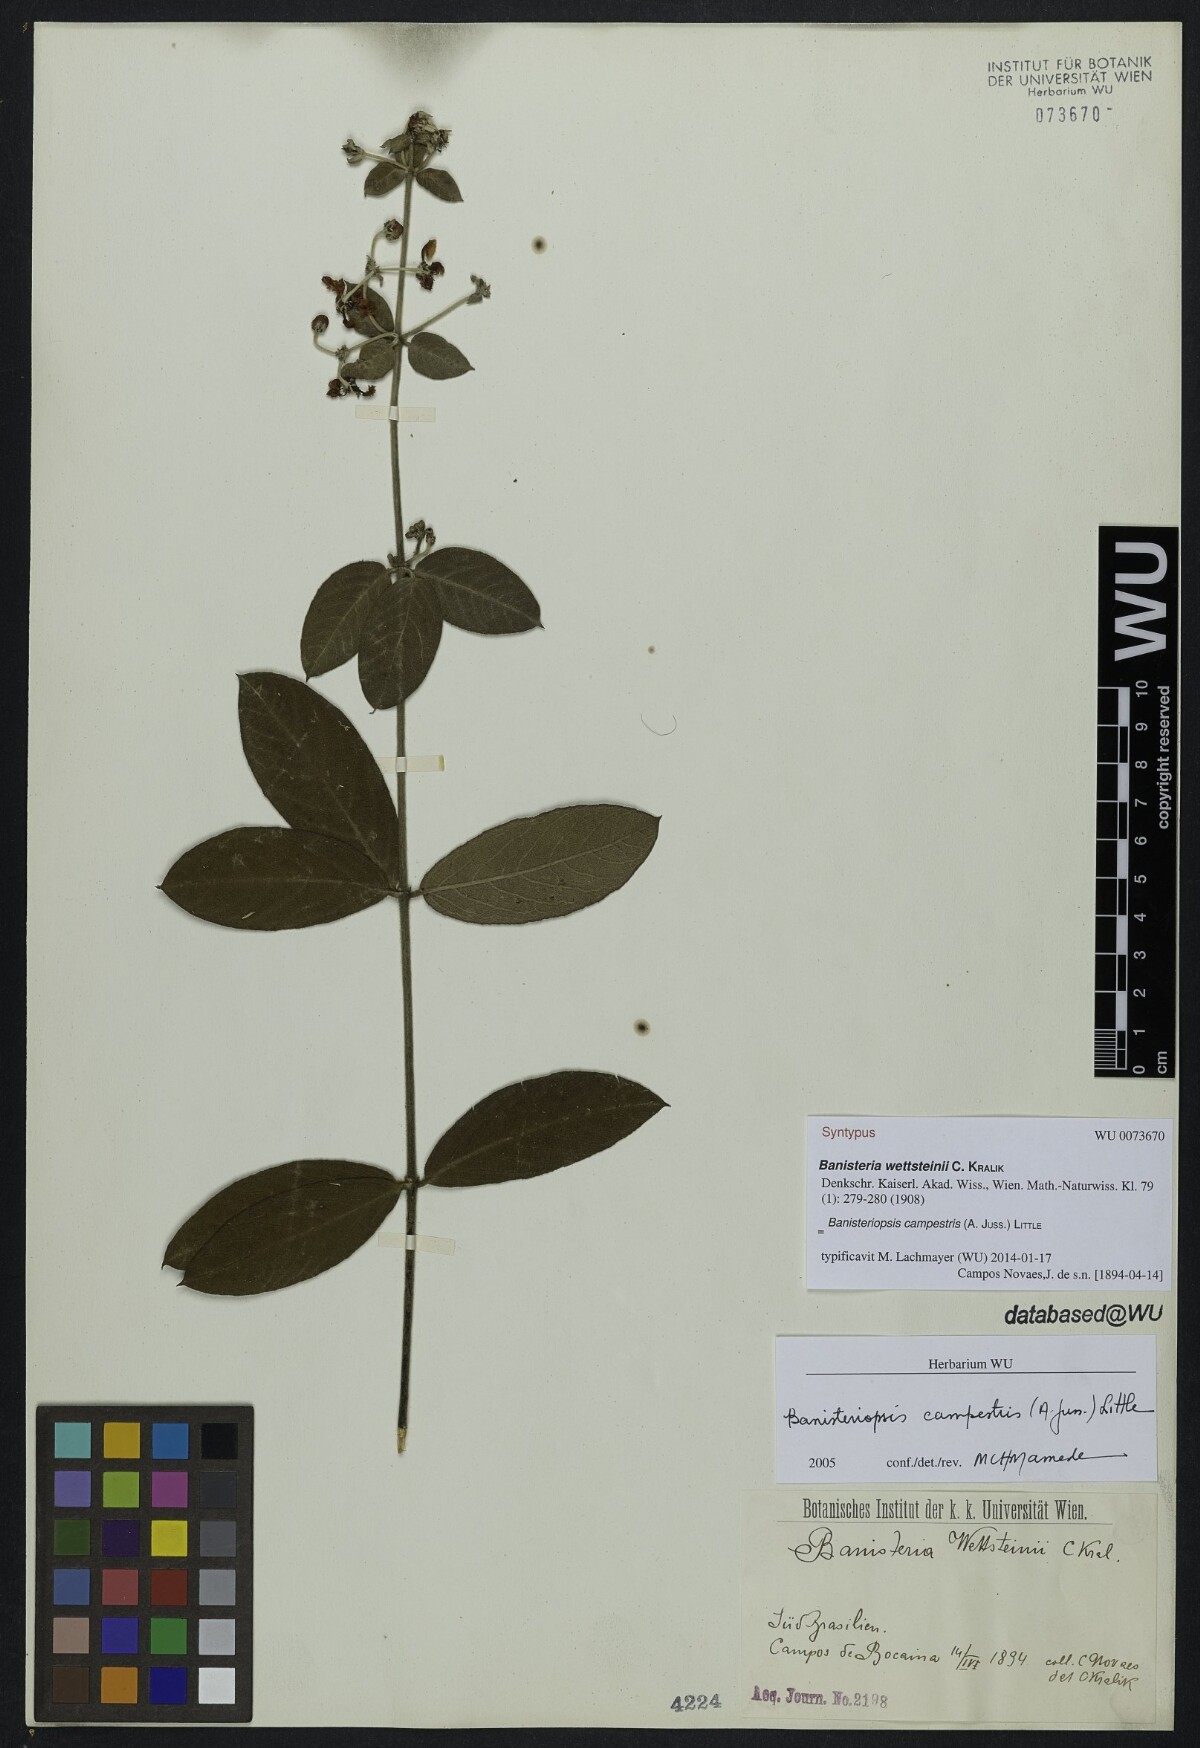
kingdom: Plantae
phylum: Tracheophyta
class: Magnoliopsida
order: Malpighiales
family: Malpighiaceae
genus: Banisteriopsis
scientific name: Banisteriopsis campestris
